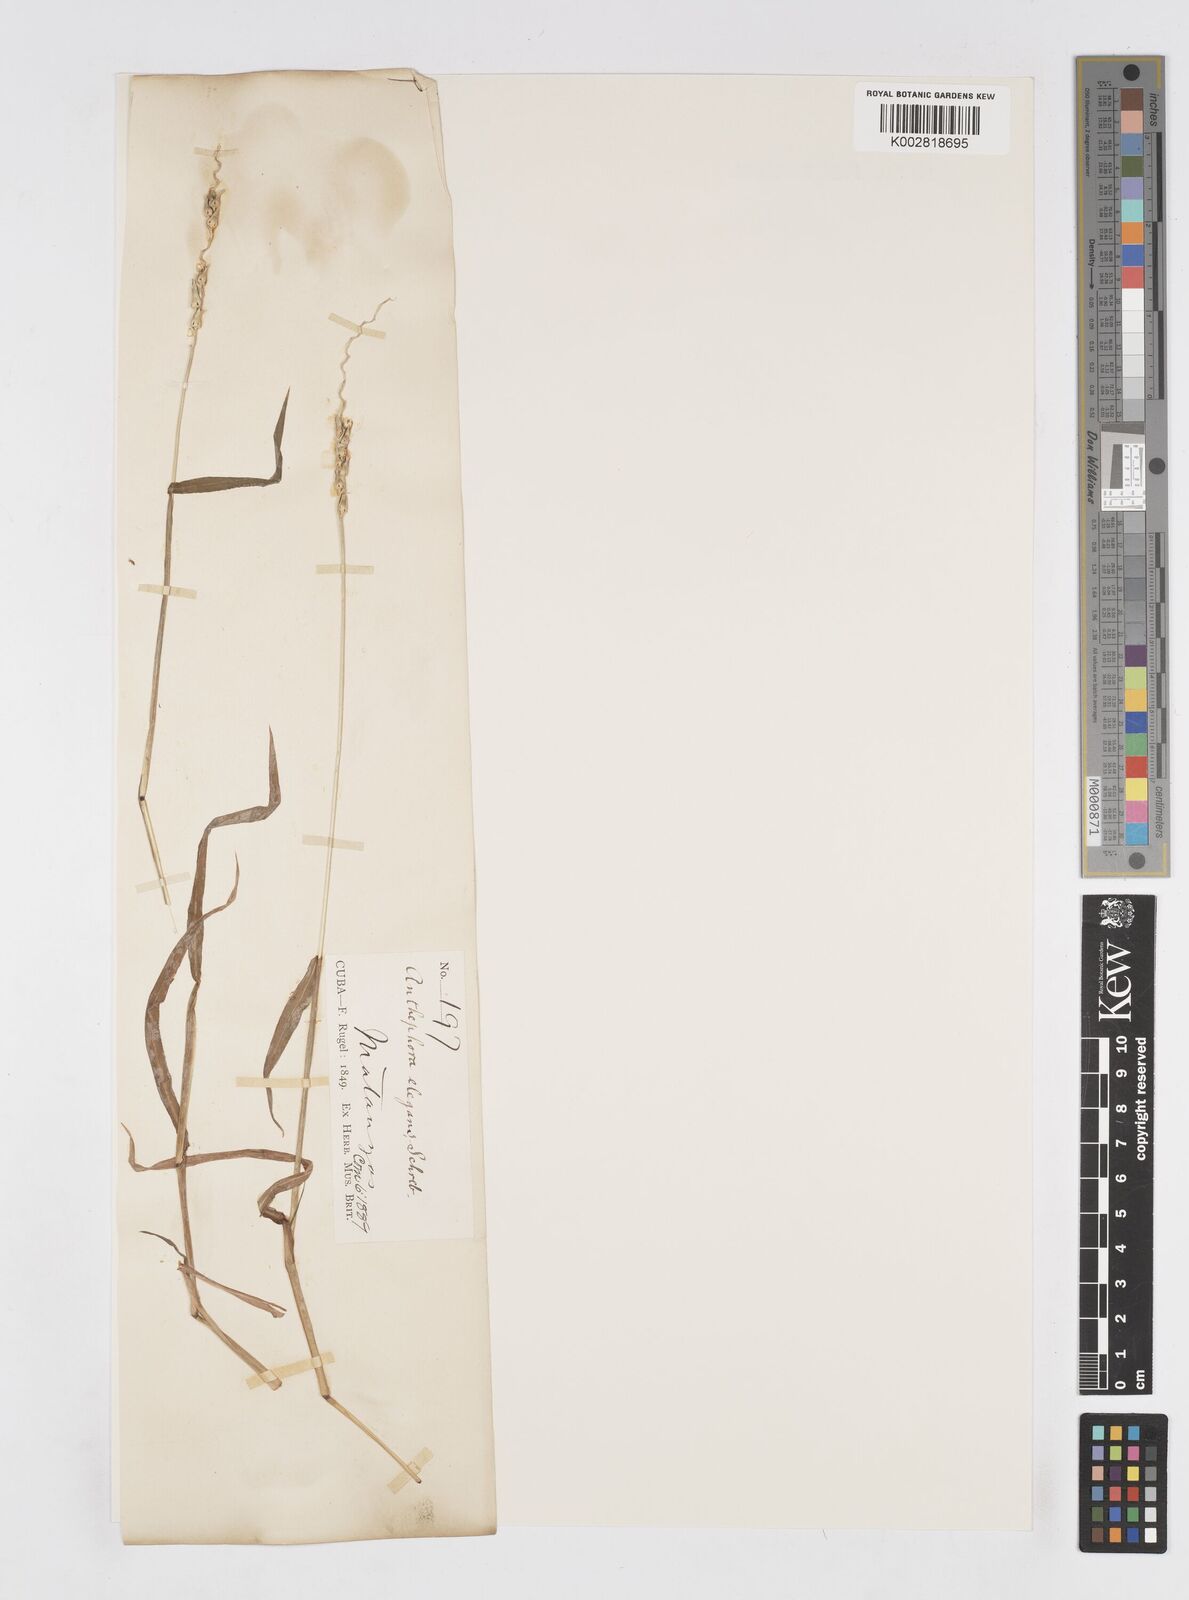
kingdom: Plantae
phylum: Tracheophyta
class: Liliopsida
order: Poales
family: Poaceae
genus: Anthephora
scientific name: Anthephora hermaphrodita
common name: Oldfield grass
